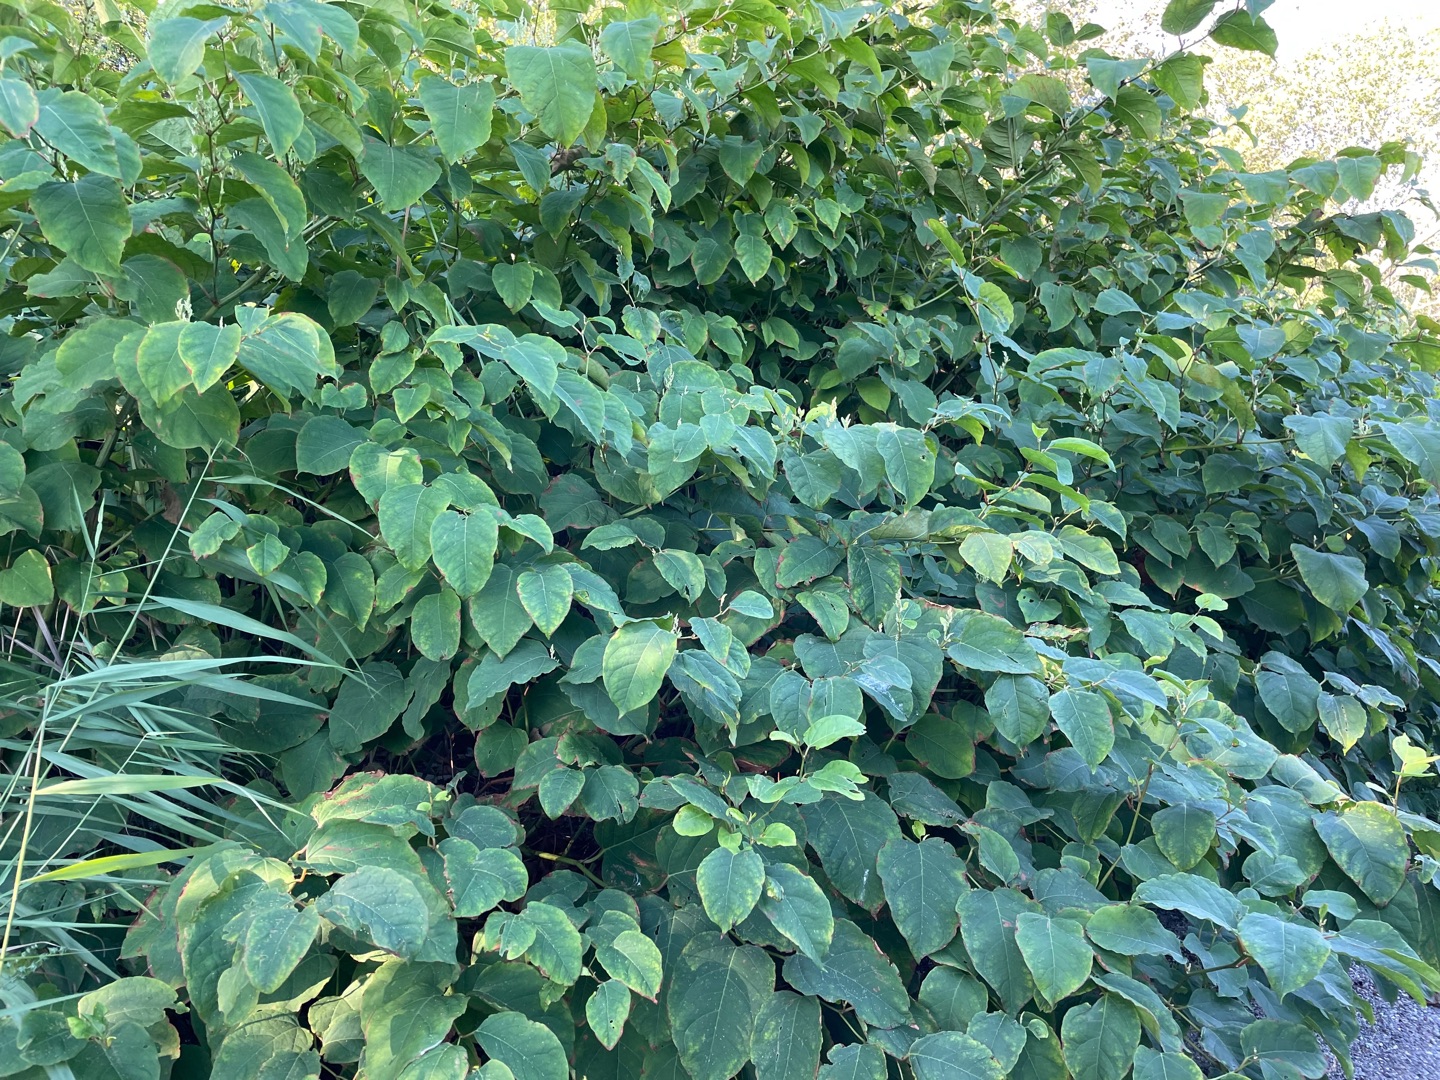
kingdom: Plantae
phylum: Tracheophyta
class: Magnoliopsida
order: Caryophyllales
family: Polygonaceae
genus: Reynoutria
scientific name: Reynoutria bohemica
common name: Hybrid-pileurt
